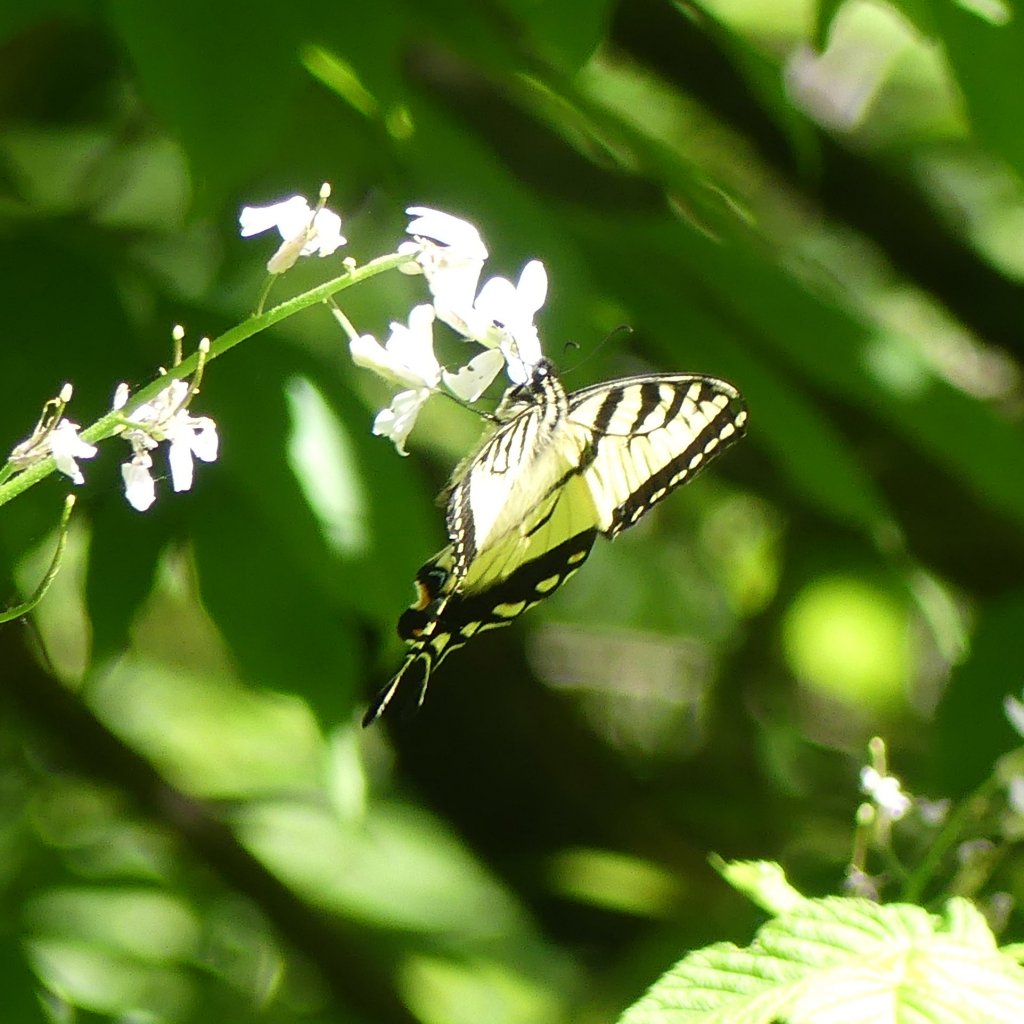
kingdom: Animalia
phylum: Arthropoda
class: Insecta
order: Lepidoptera
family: Papilionidae
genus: Pterourus
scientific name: Pterourus glaucus
